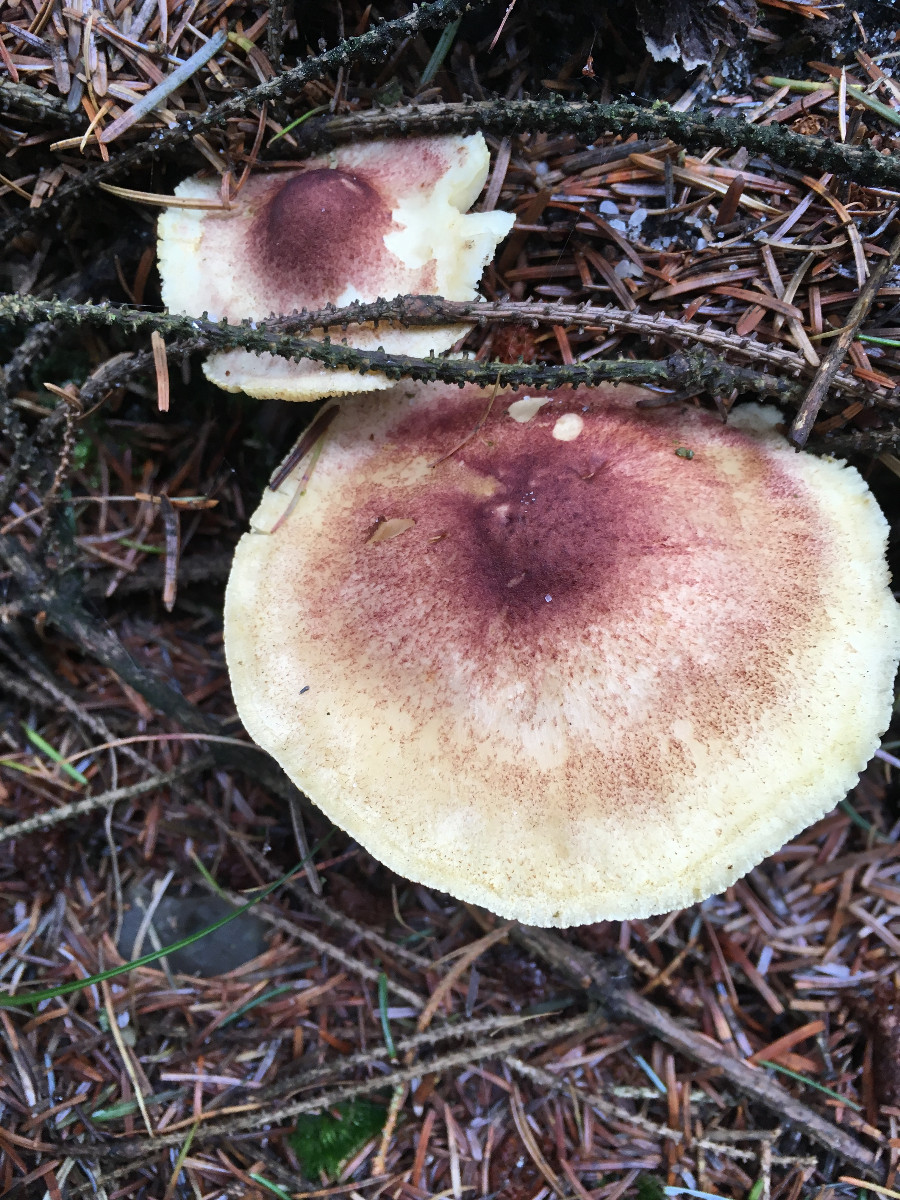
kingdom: Fungi
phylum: Basidiomycota
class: Agaricomycetes
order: Agaricales
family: Tricholomataceae
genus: Tricholomopsis
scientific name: Tricholomopsis rutilans
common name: purpur-væbnerhat
